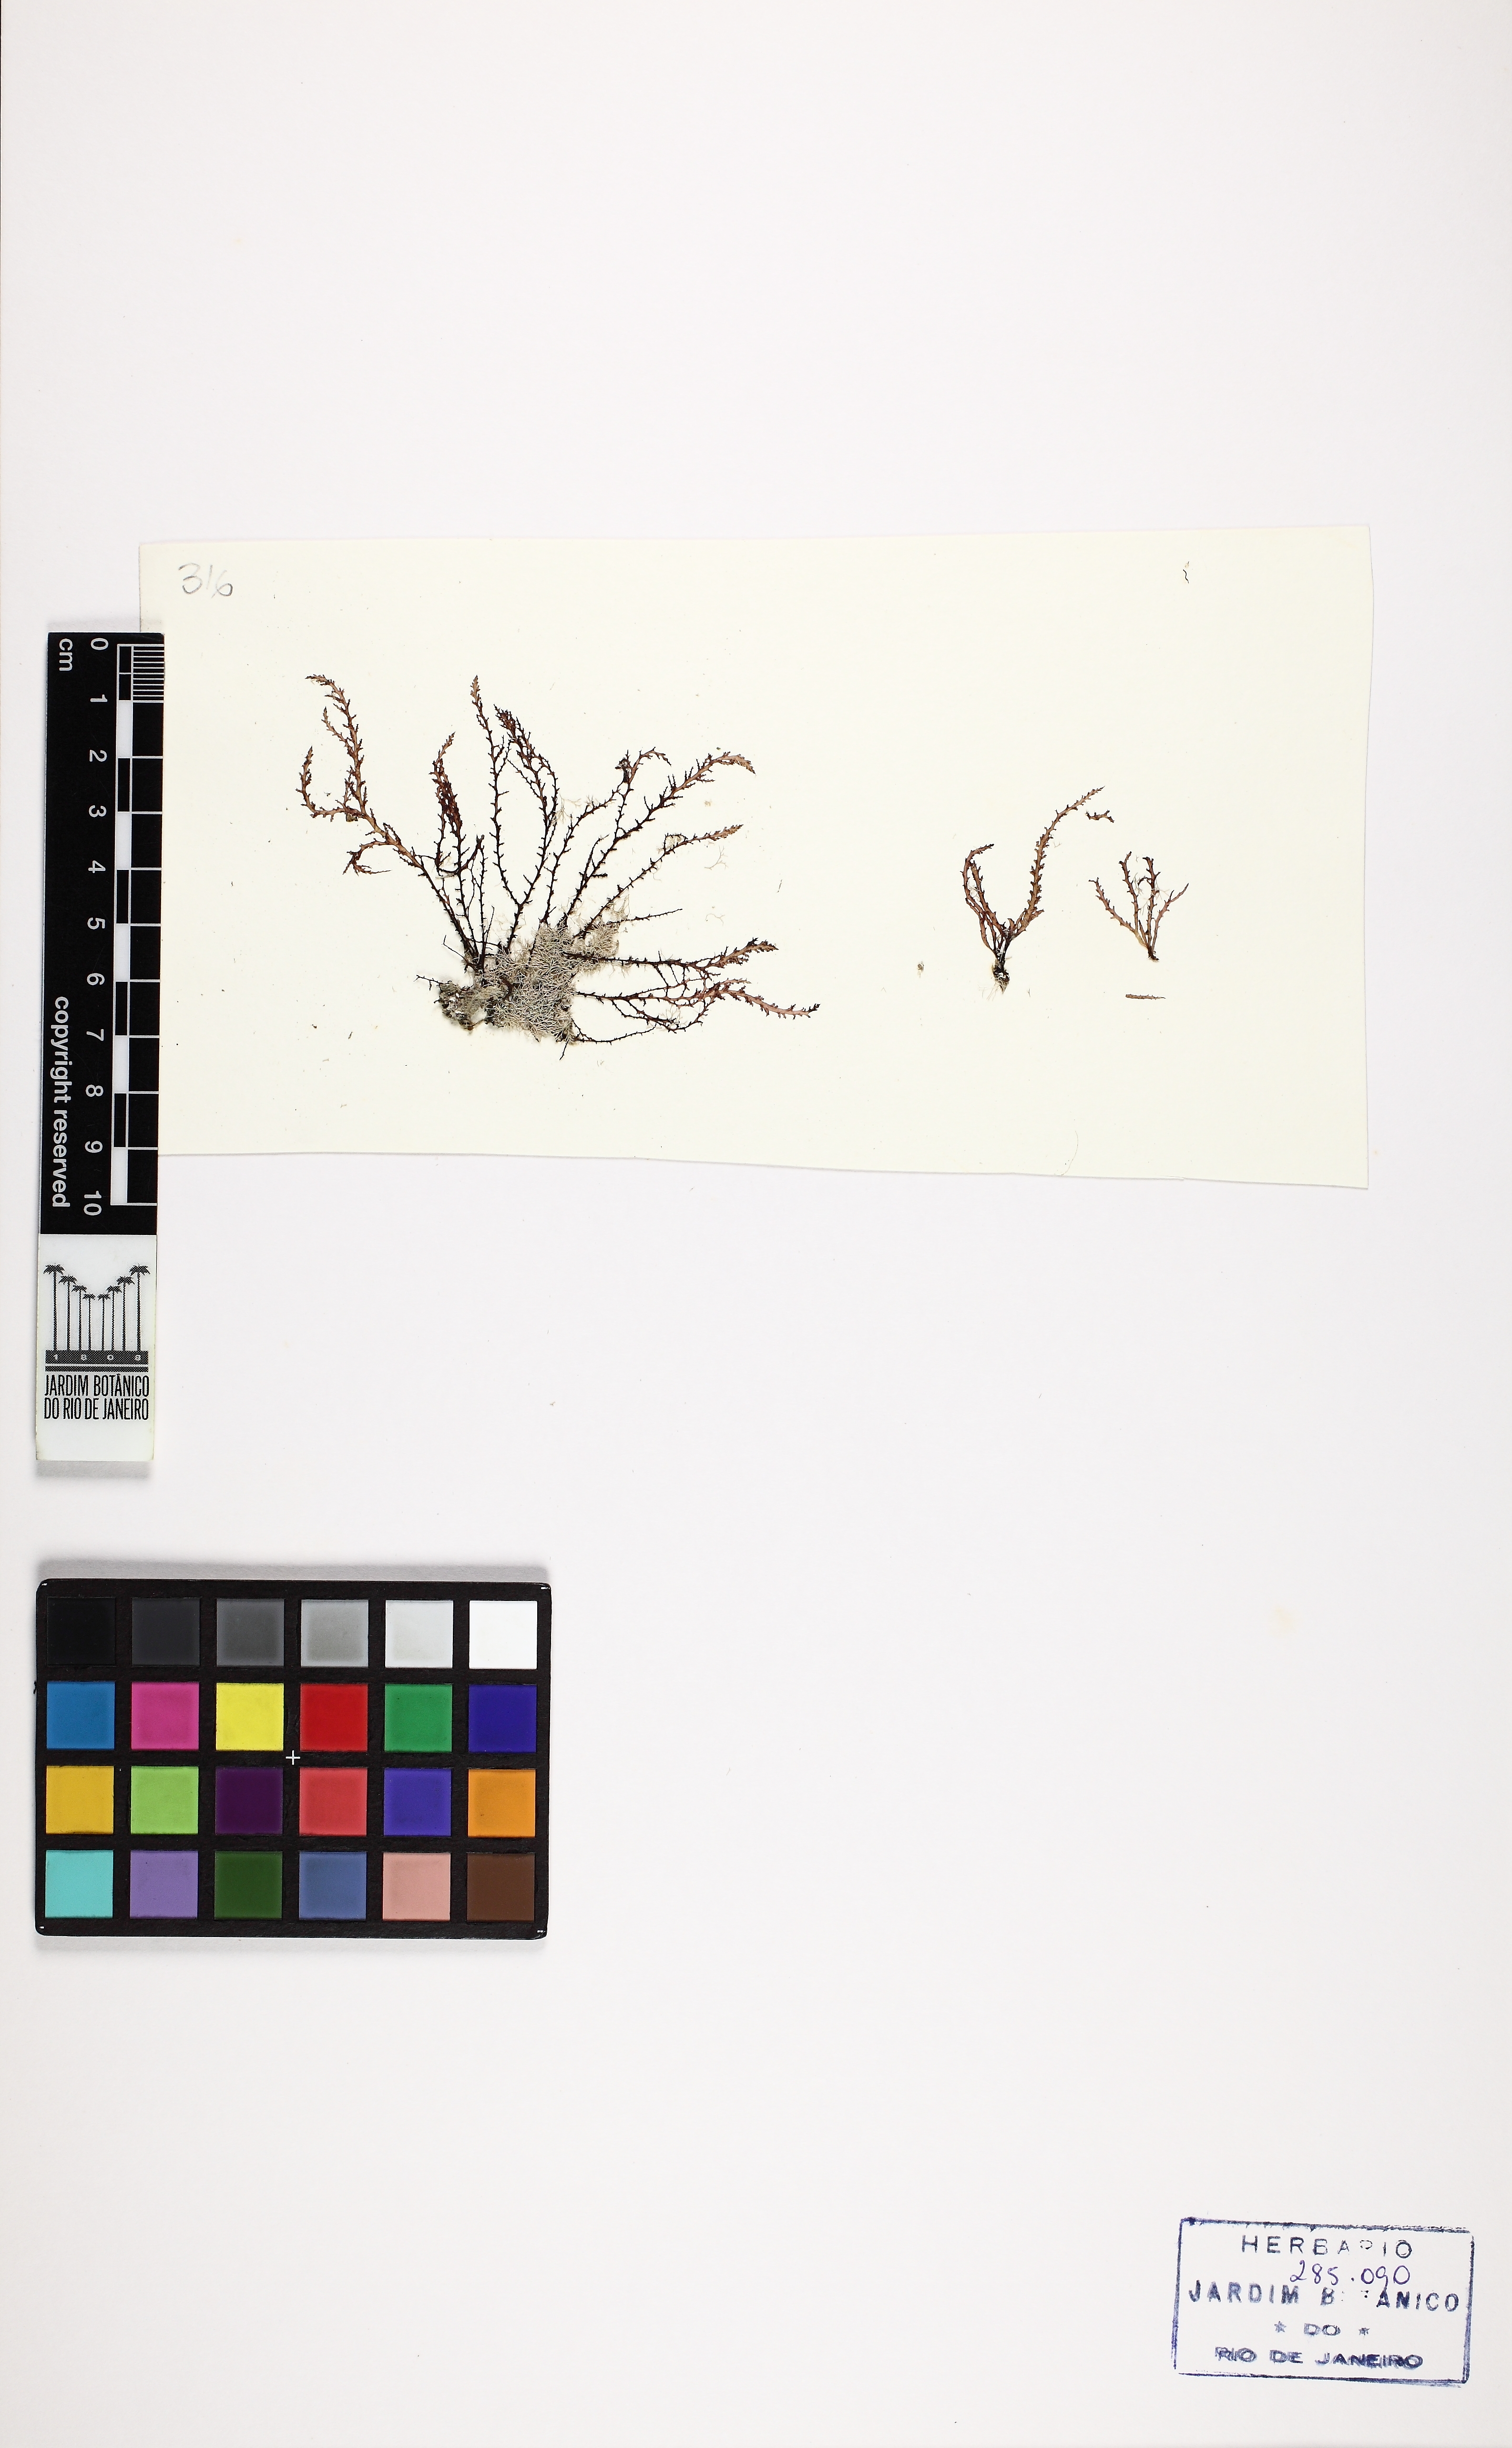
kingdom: Plantae
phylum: Rhodophyta
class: Florideophyceae
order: Ceramiales
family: Rhodomelaceae
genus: Acanthophora
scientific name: Acanthophora spicifera
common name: Red algae
